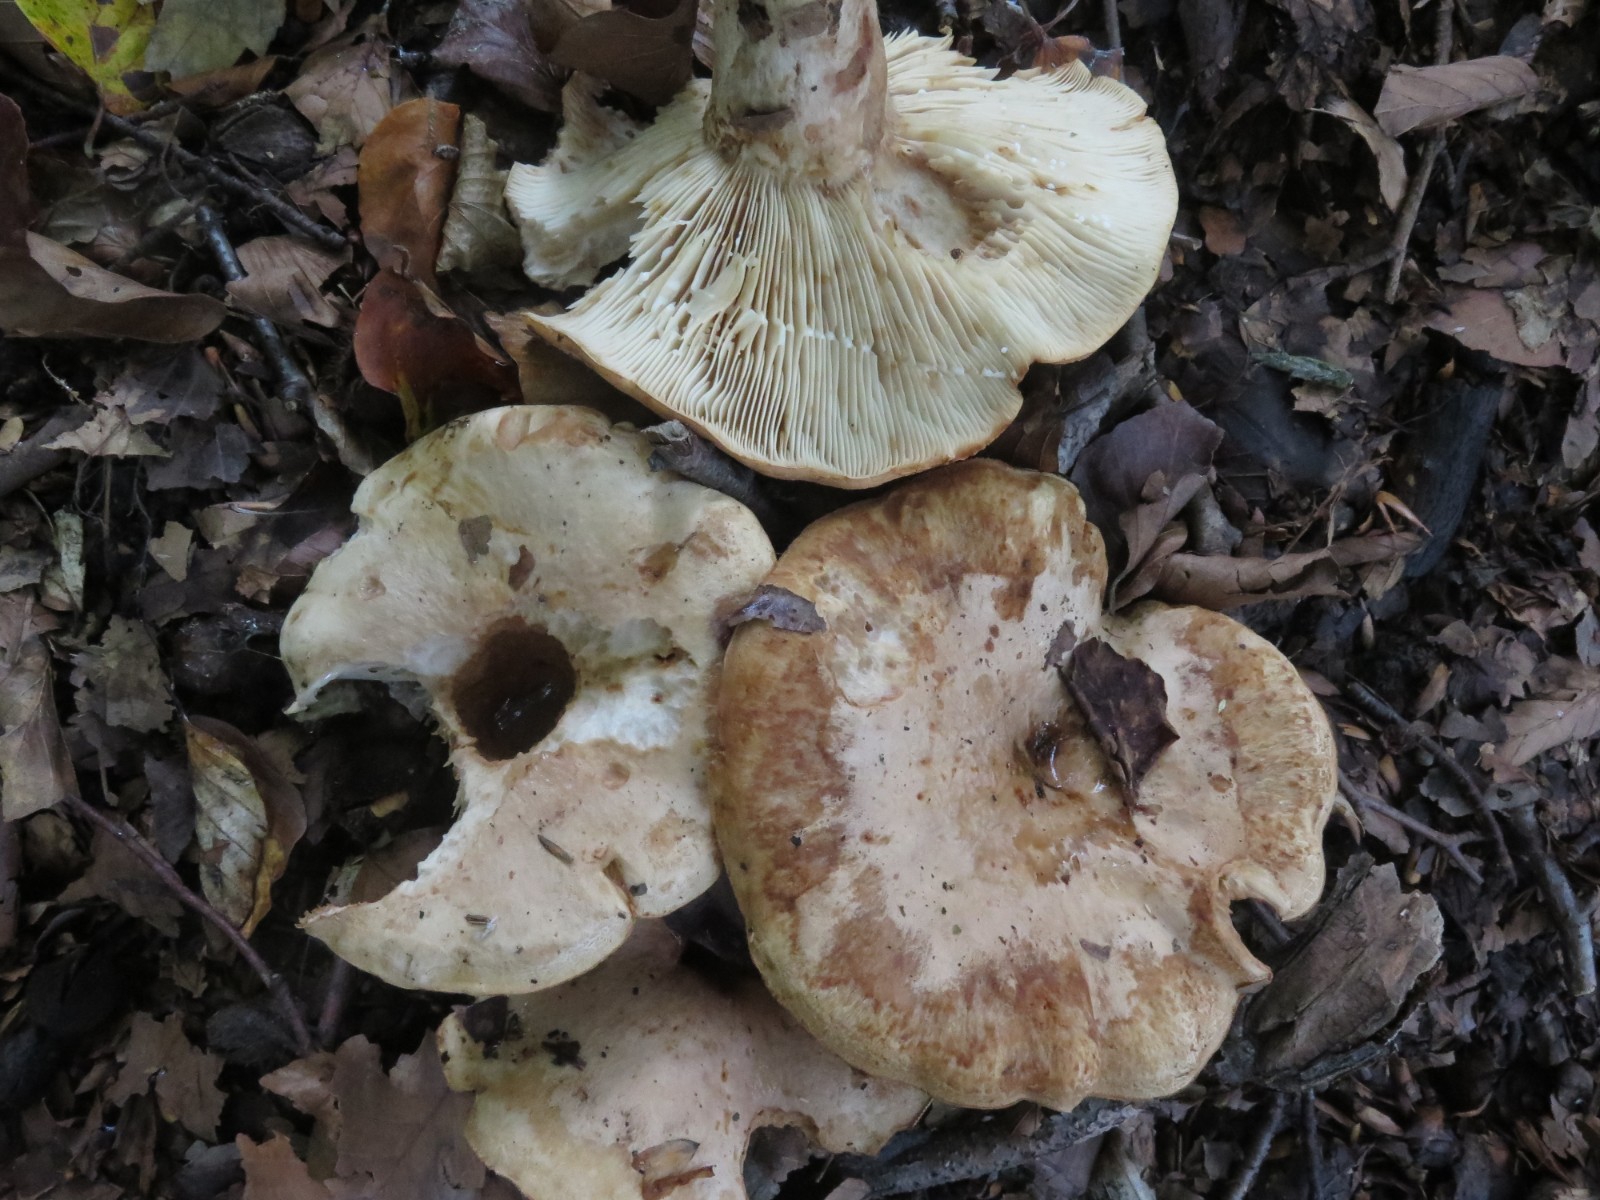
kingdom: Fungi
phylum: Basidiomycota
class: Agaricomycetes
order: Russulales
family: Russulaceae
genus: Lactarius
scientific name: Lactarius pallidus
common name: bleg mælkehat
